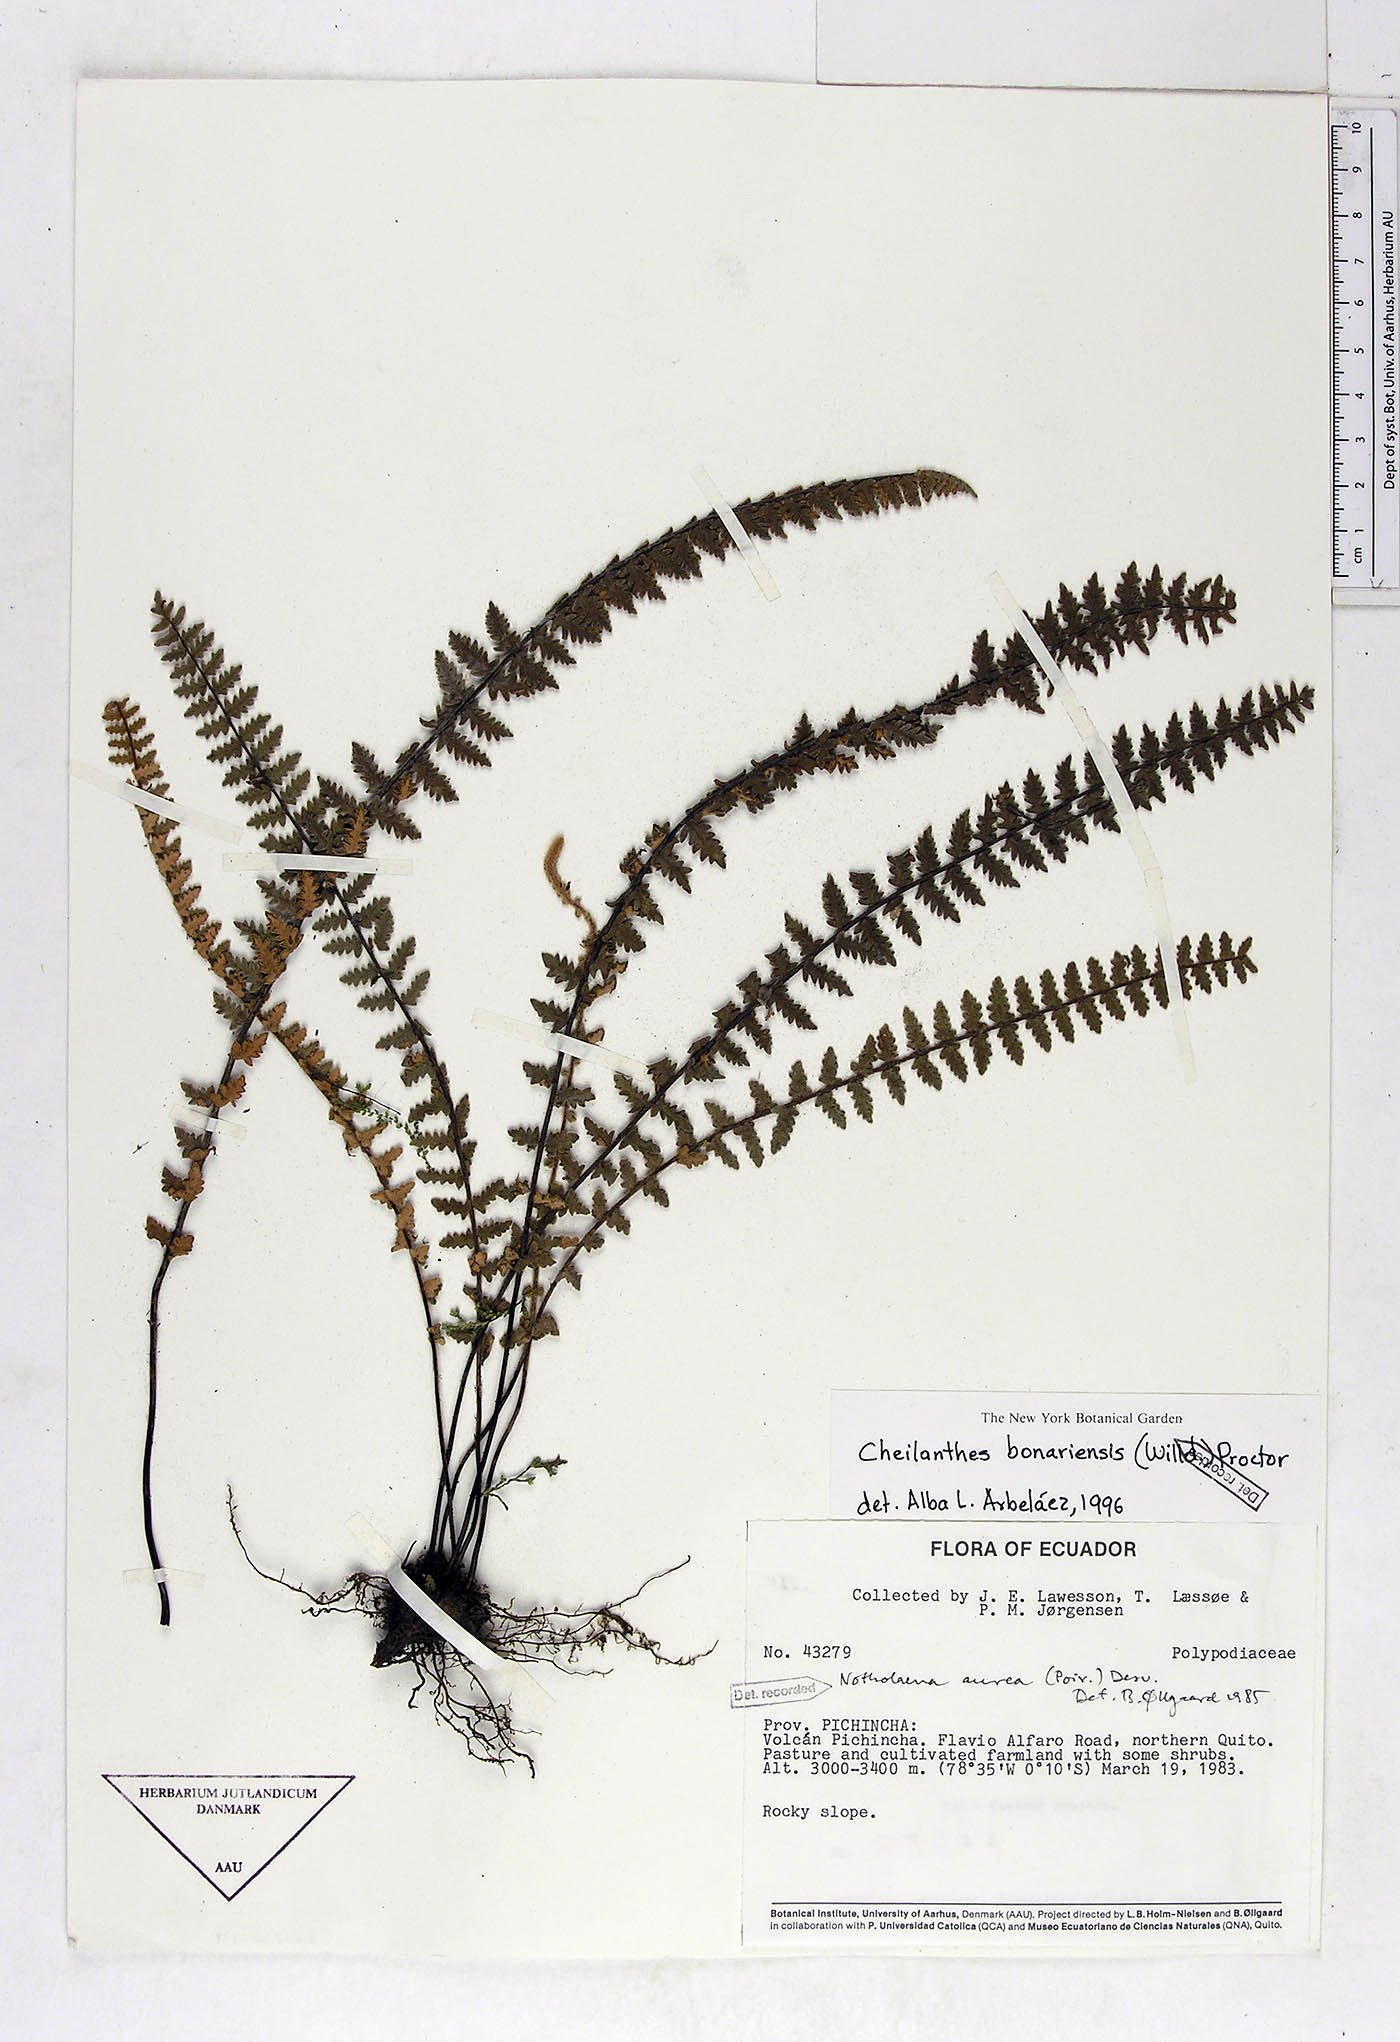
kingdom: Plantae
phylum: Tracheophyta
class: Polypodiopsida
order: Polypodiales
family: Pteridaceae
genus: Myriopteris
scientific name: Myriopteris aurea
